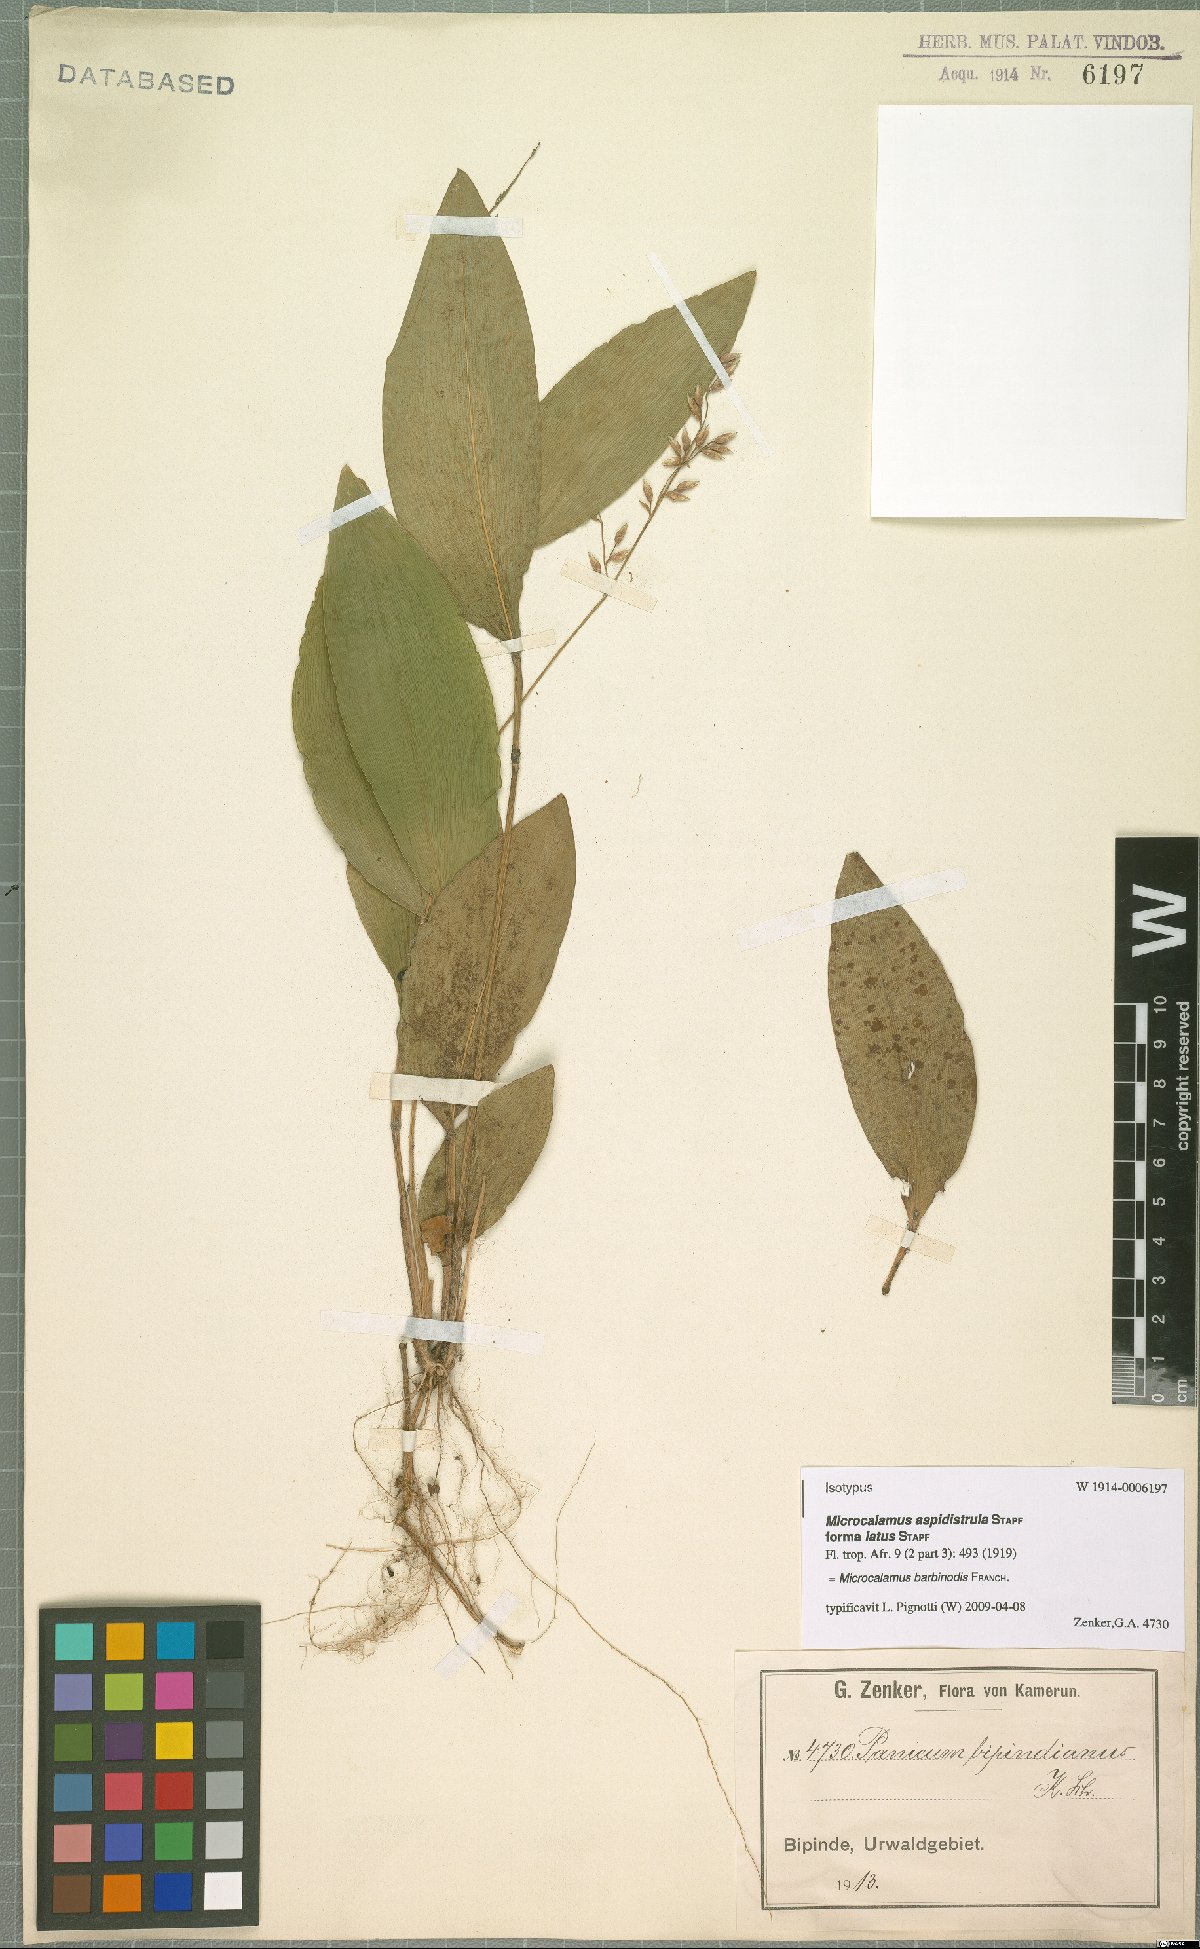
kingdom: Plantae
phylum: Tracheophyta
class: Liliopsida
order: Poales
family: Poaceae
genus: Microcalamus
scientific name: Microcalamus barbinodis
